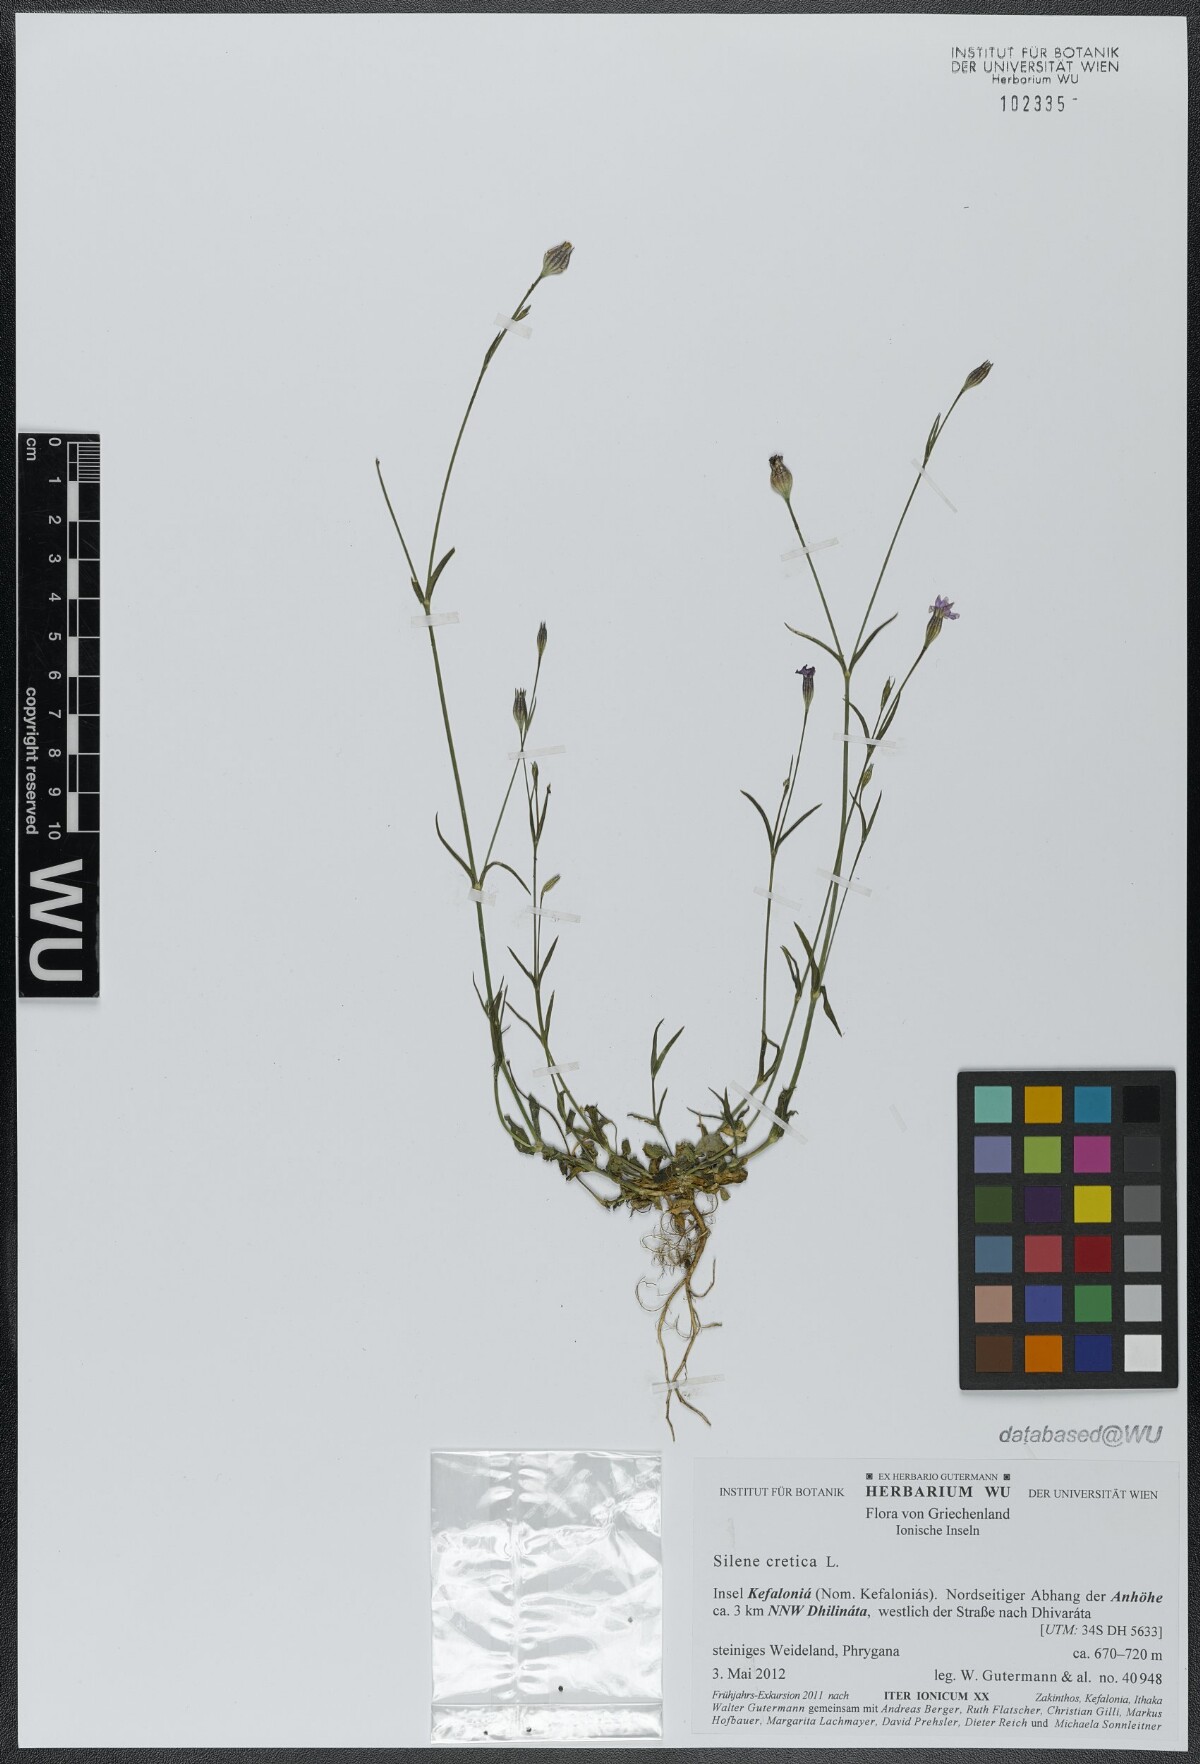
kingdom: Plantae
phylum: Tracheophyta
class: Magnoliopsida
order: Caryophyllales
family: Caryophyllaceae
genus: Silene
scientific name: Silene cretica
